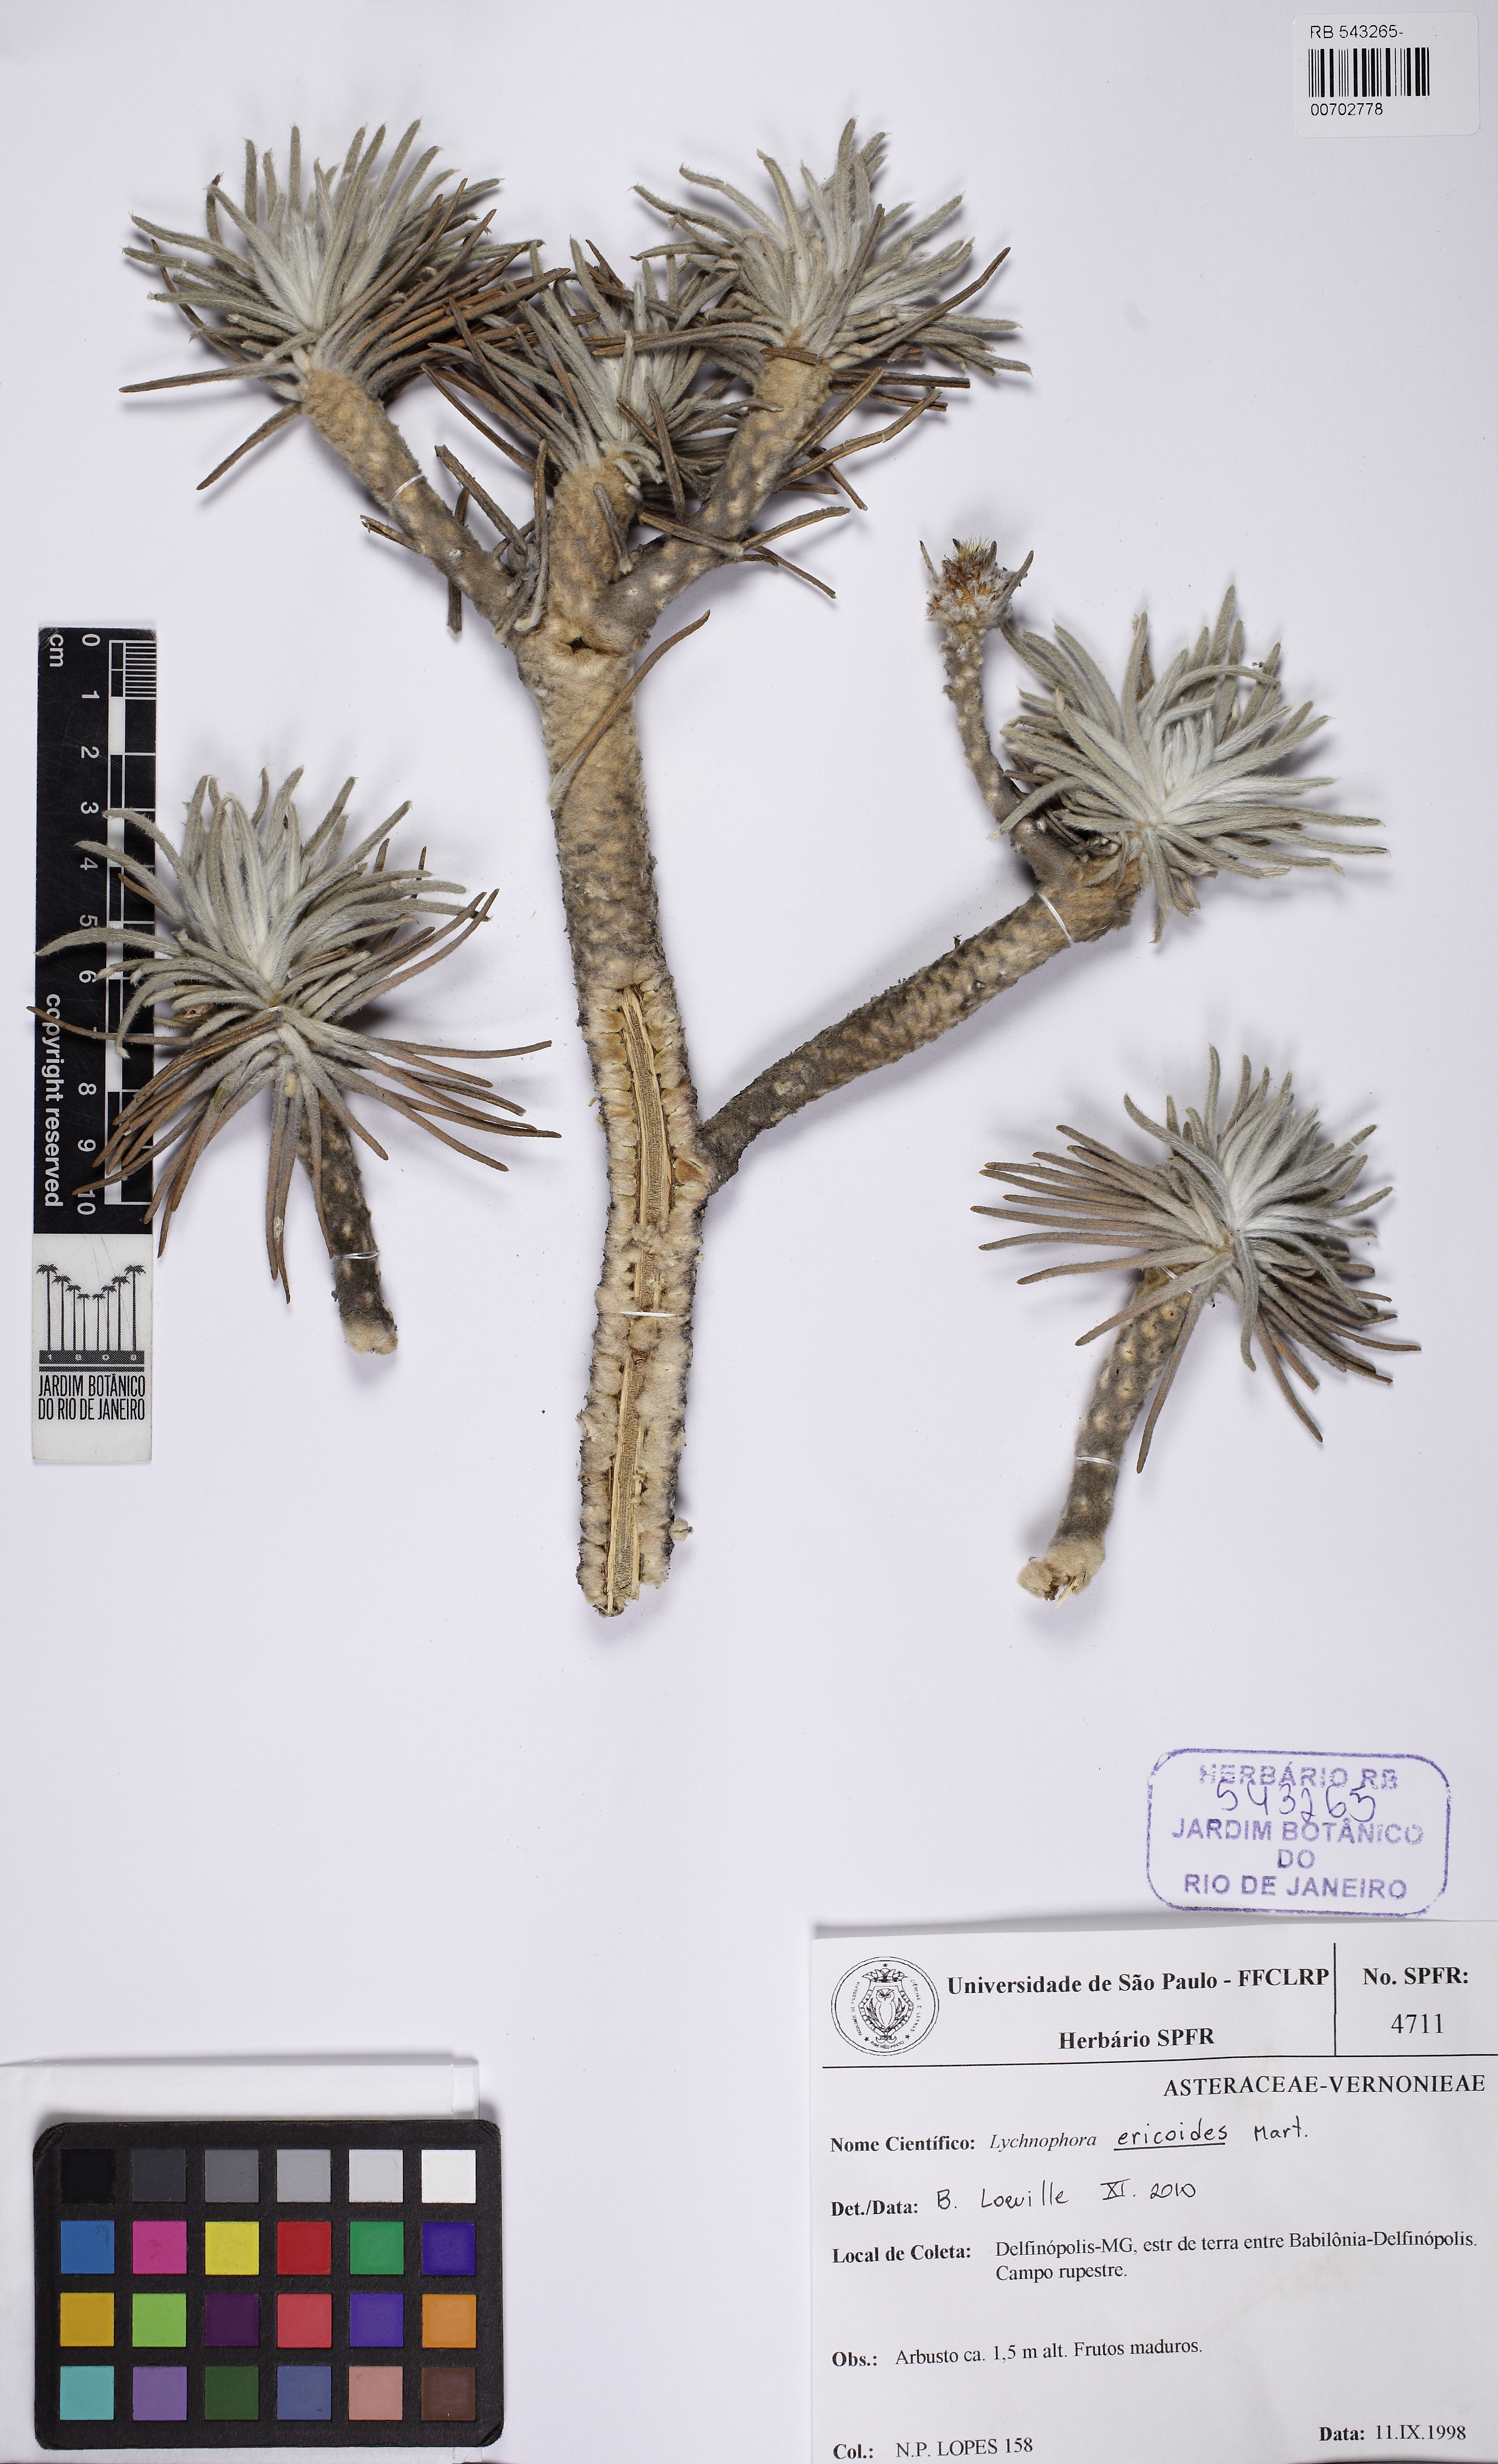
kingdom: Plantae
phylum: Tracheophyta
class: Magnoliopsida
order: Asterales
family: Asteraceae
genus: Lychnophora
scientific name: Lychnophora ericoides
